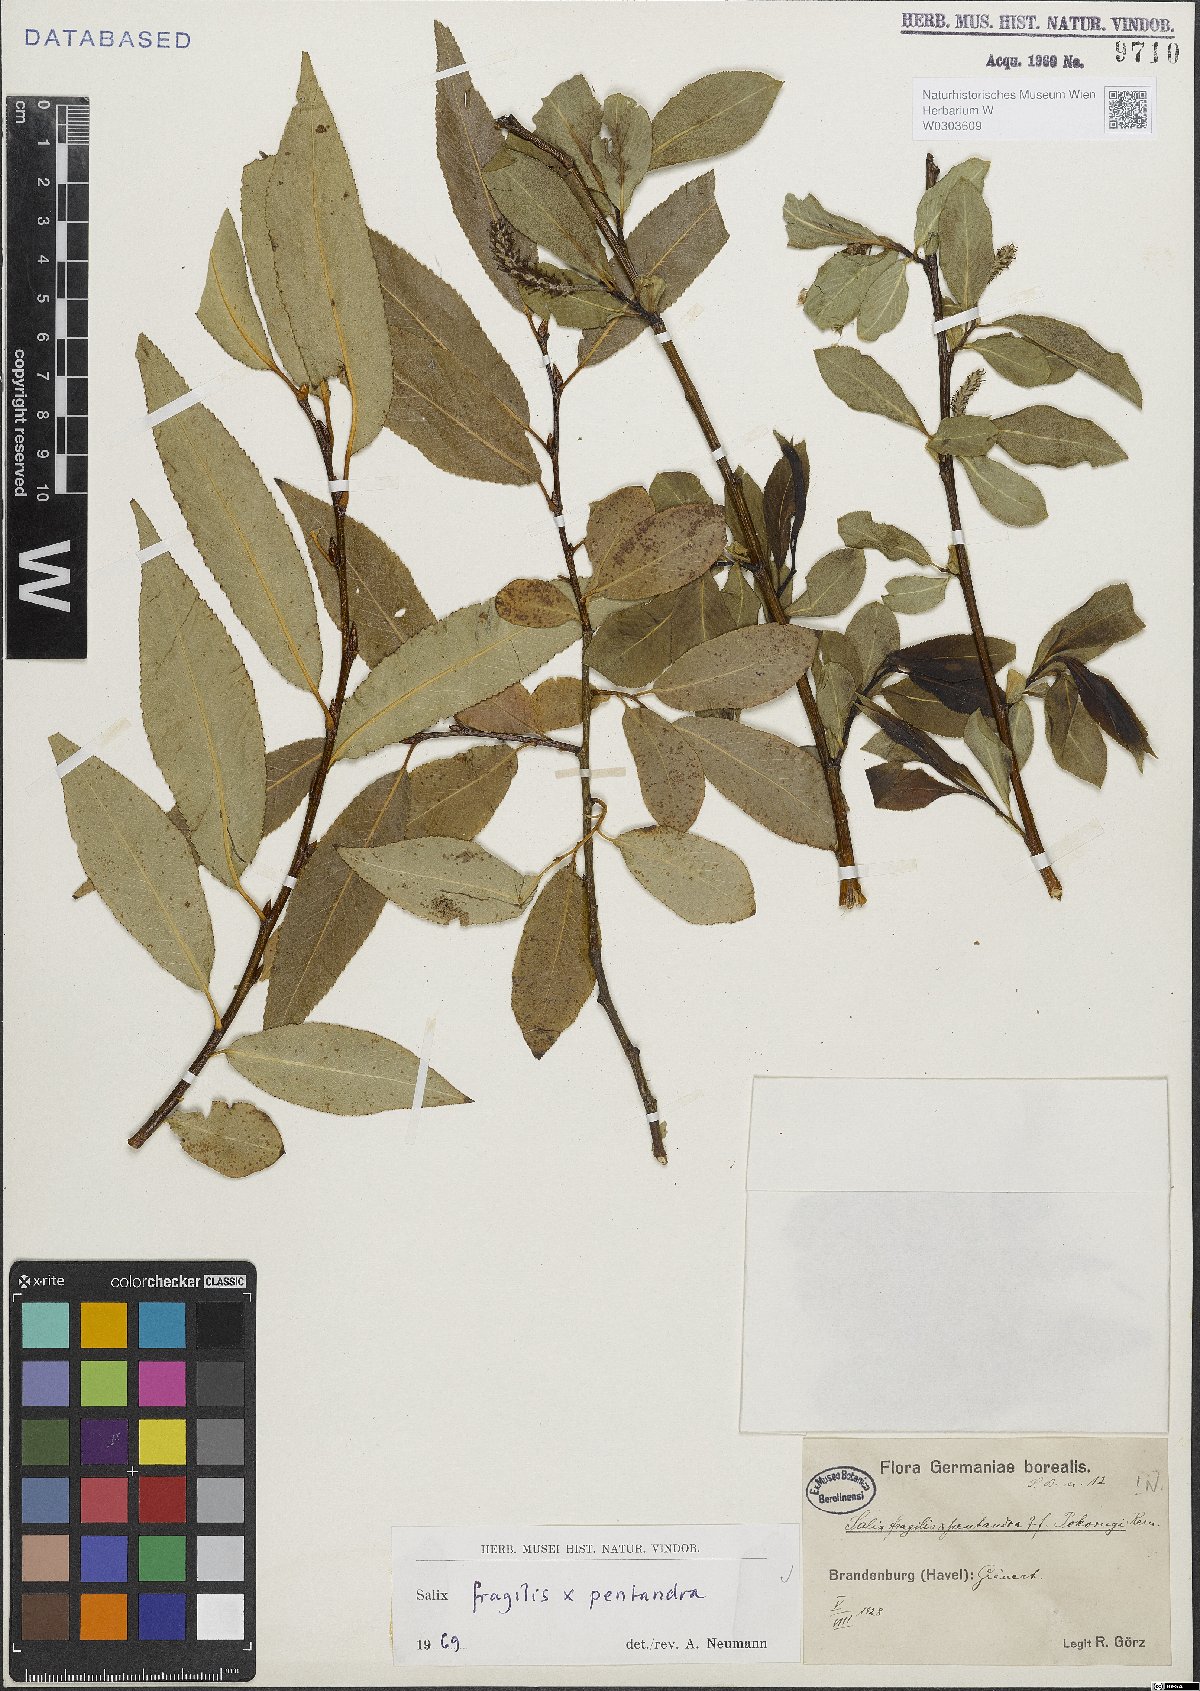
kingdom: Plantae
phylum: Tracheophyta
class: Magnoliopsida
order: Malpighiales
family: Salicaceae
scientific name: Salicaceae
